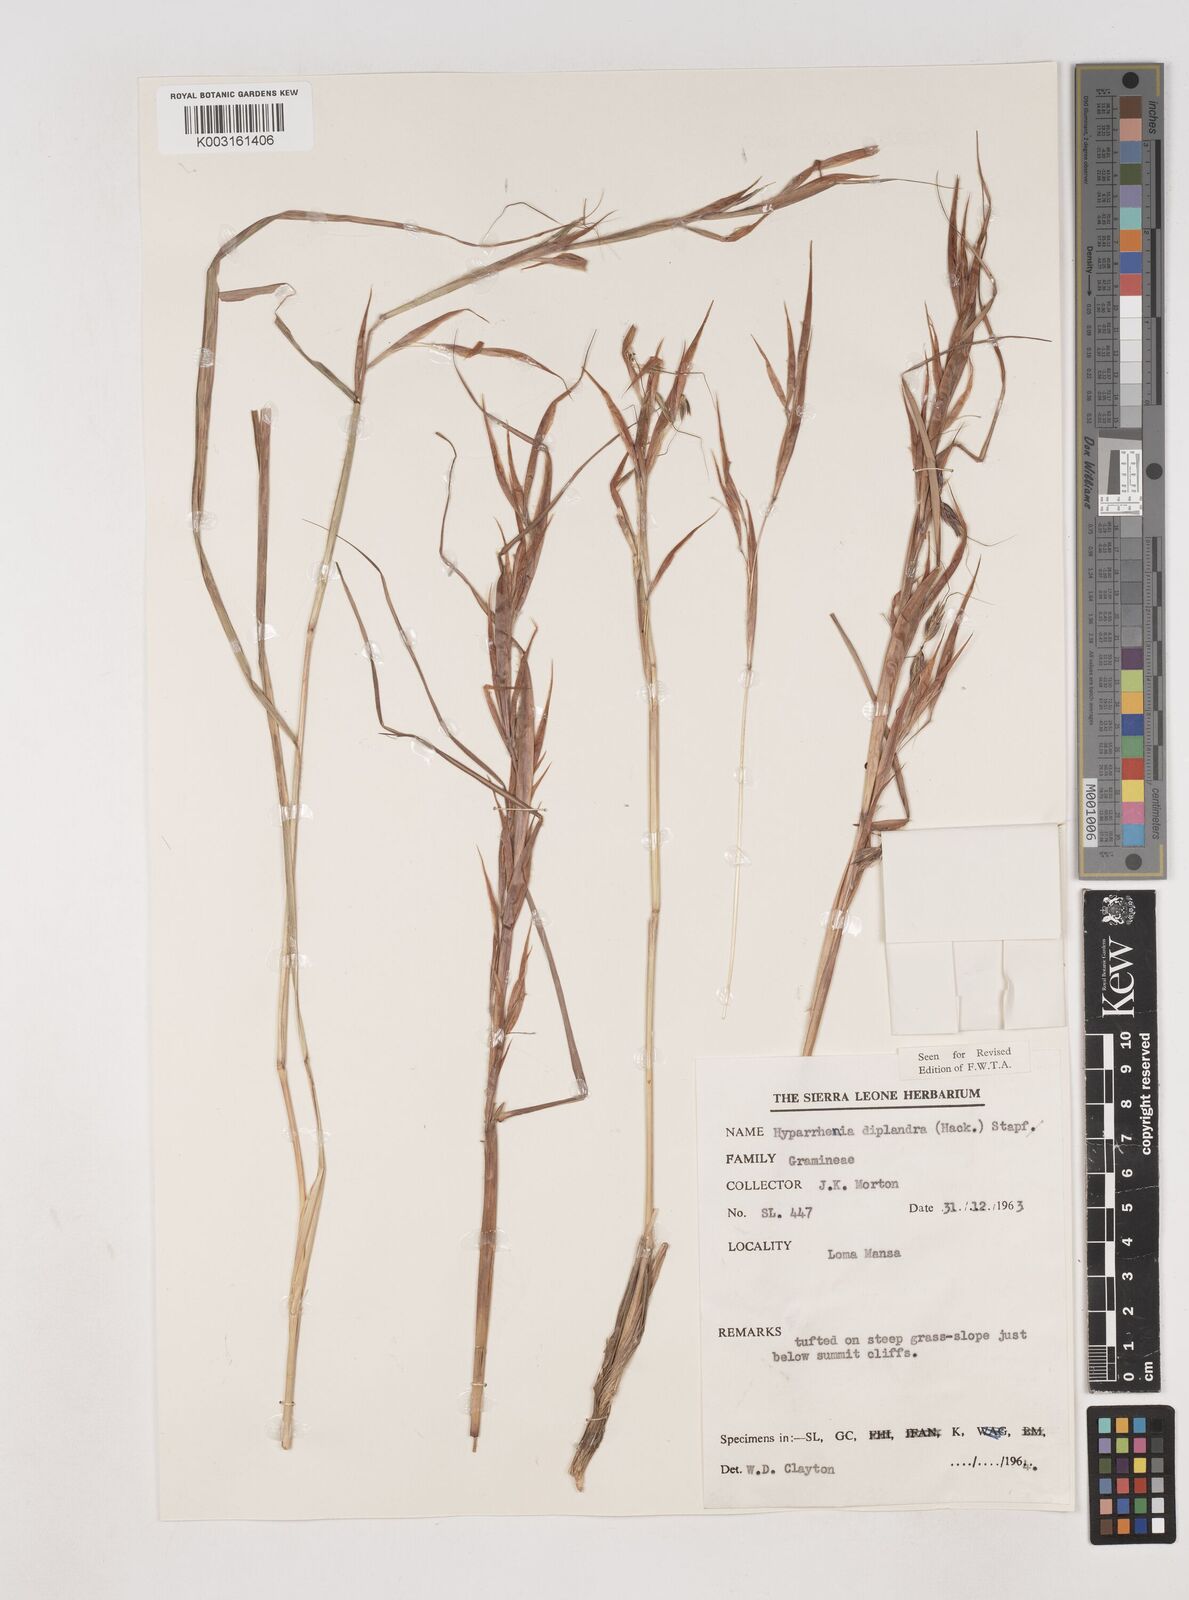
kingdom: Plantae
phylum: Tracheophyta
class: Liliopsida
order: Poales
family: Poaceae
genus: Hyparrhenia
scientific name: Hyparrhenia diplandra
